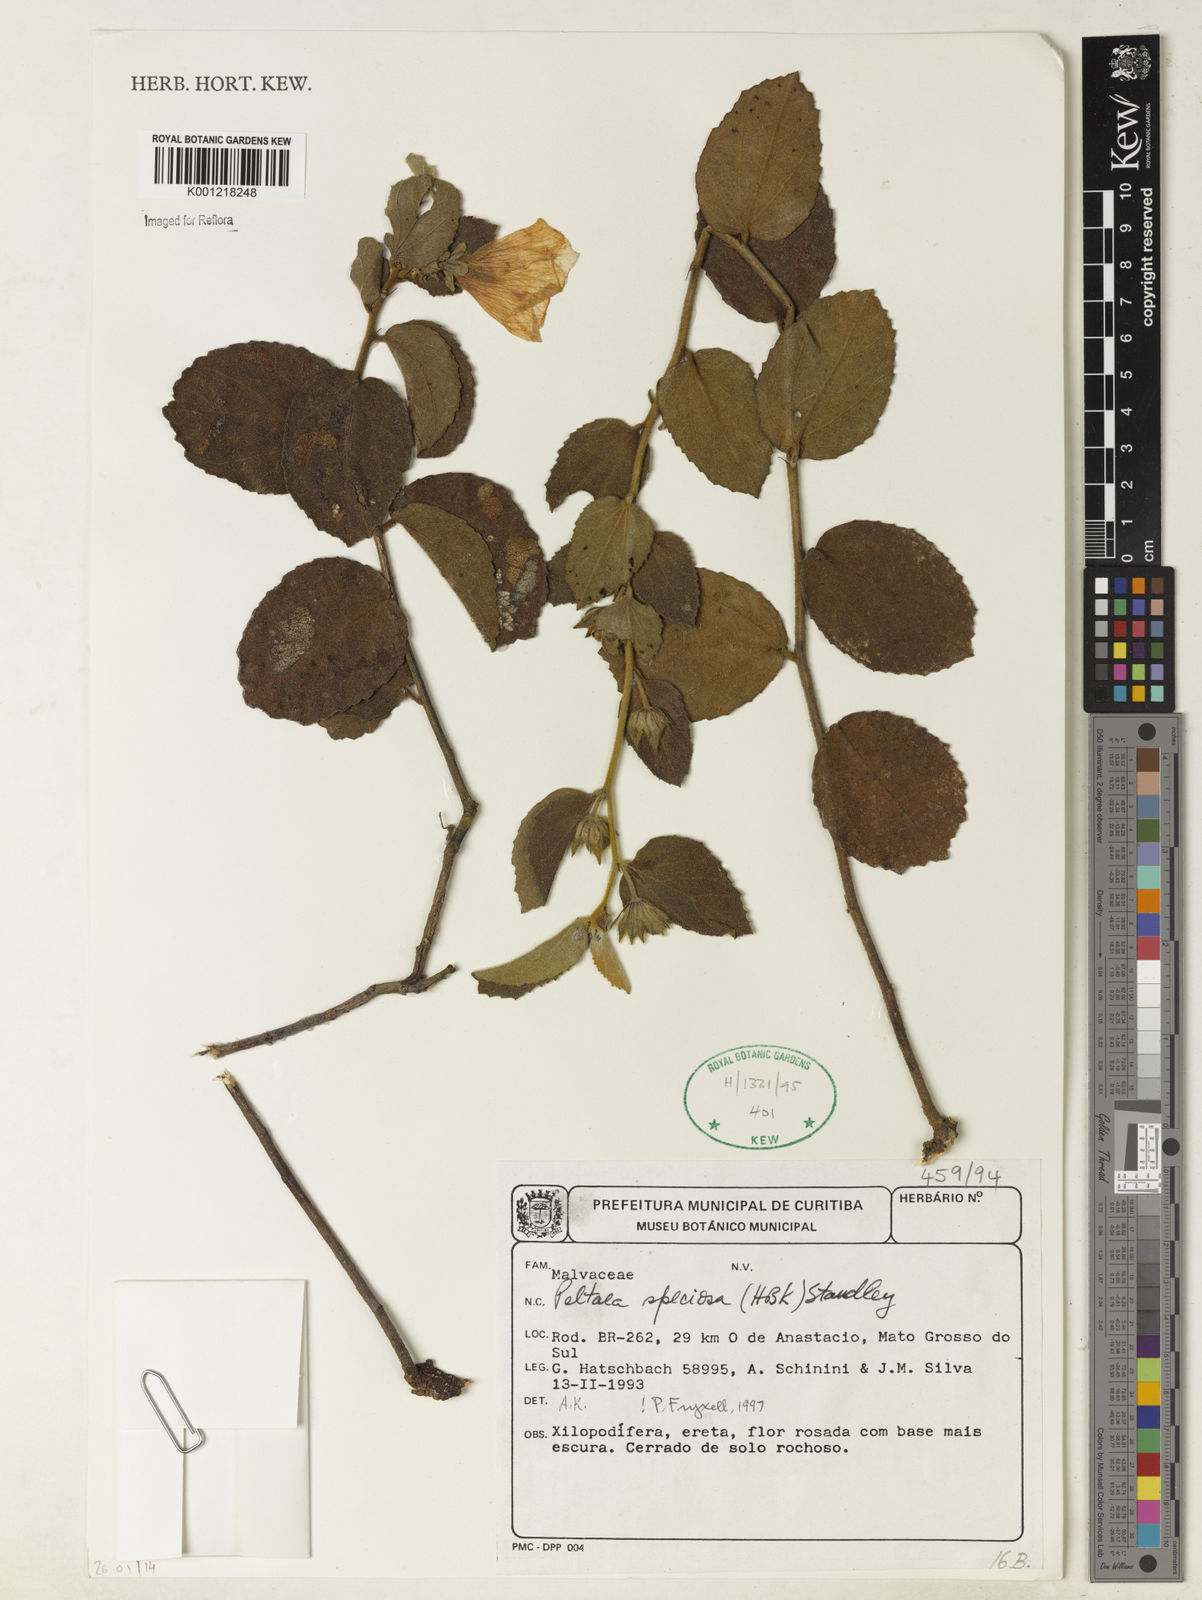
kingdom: Plantae
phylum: Tracheophyta
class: Magnoliopsida
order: Malvales
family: Malvaceae
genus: Peltaea
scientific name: Peltaea speciosa
